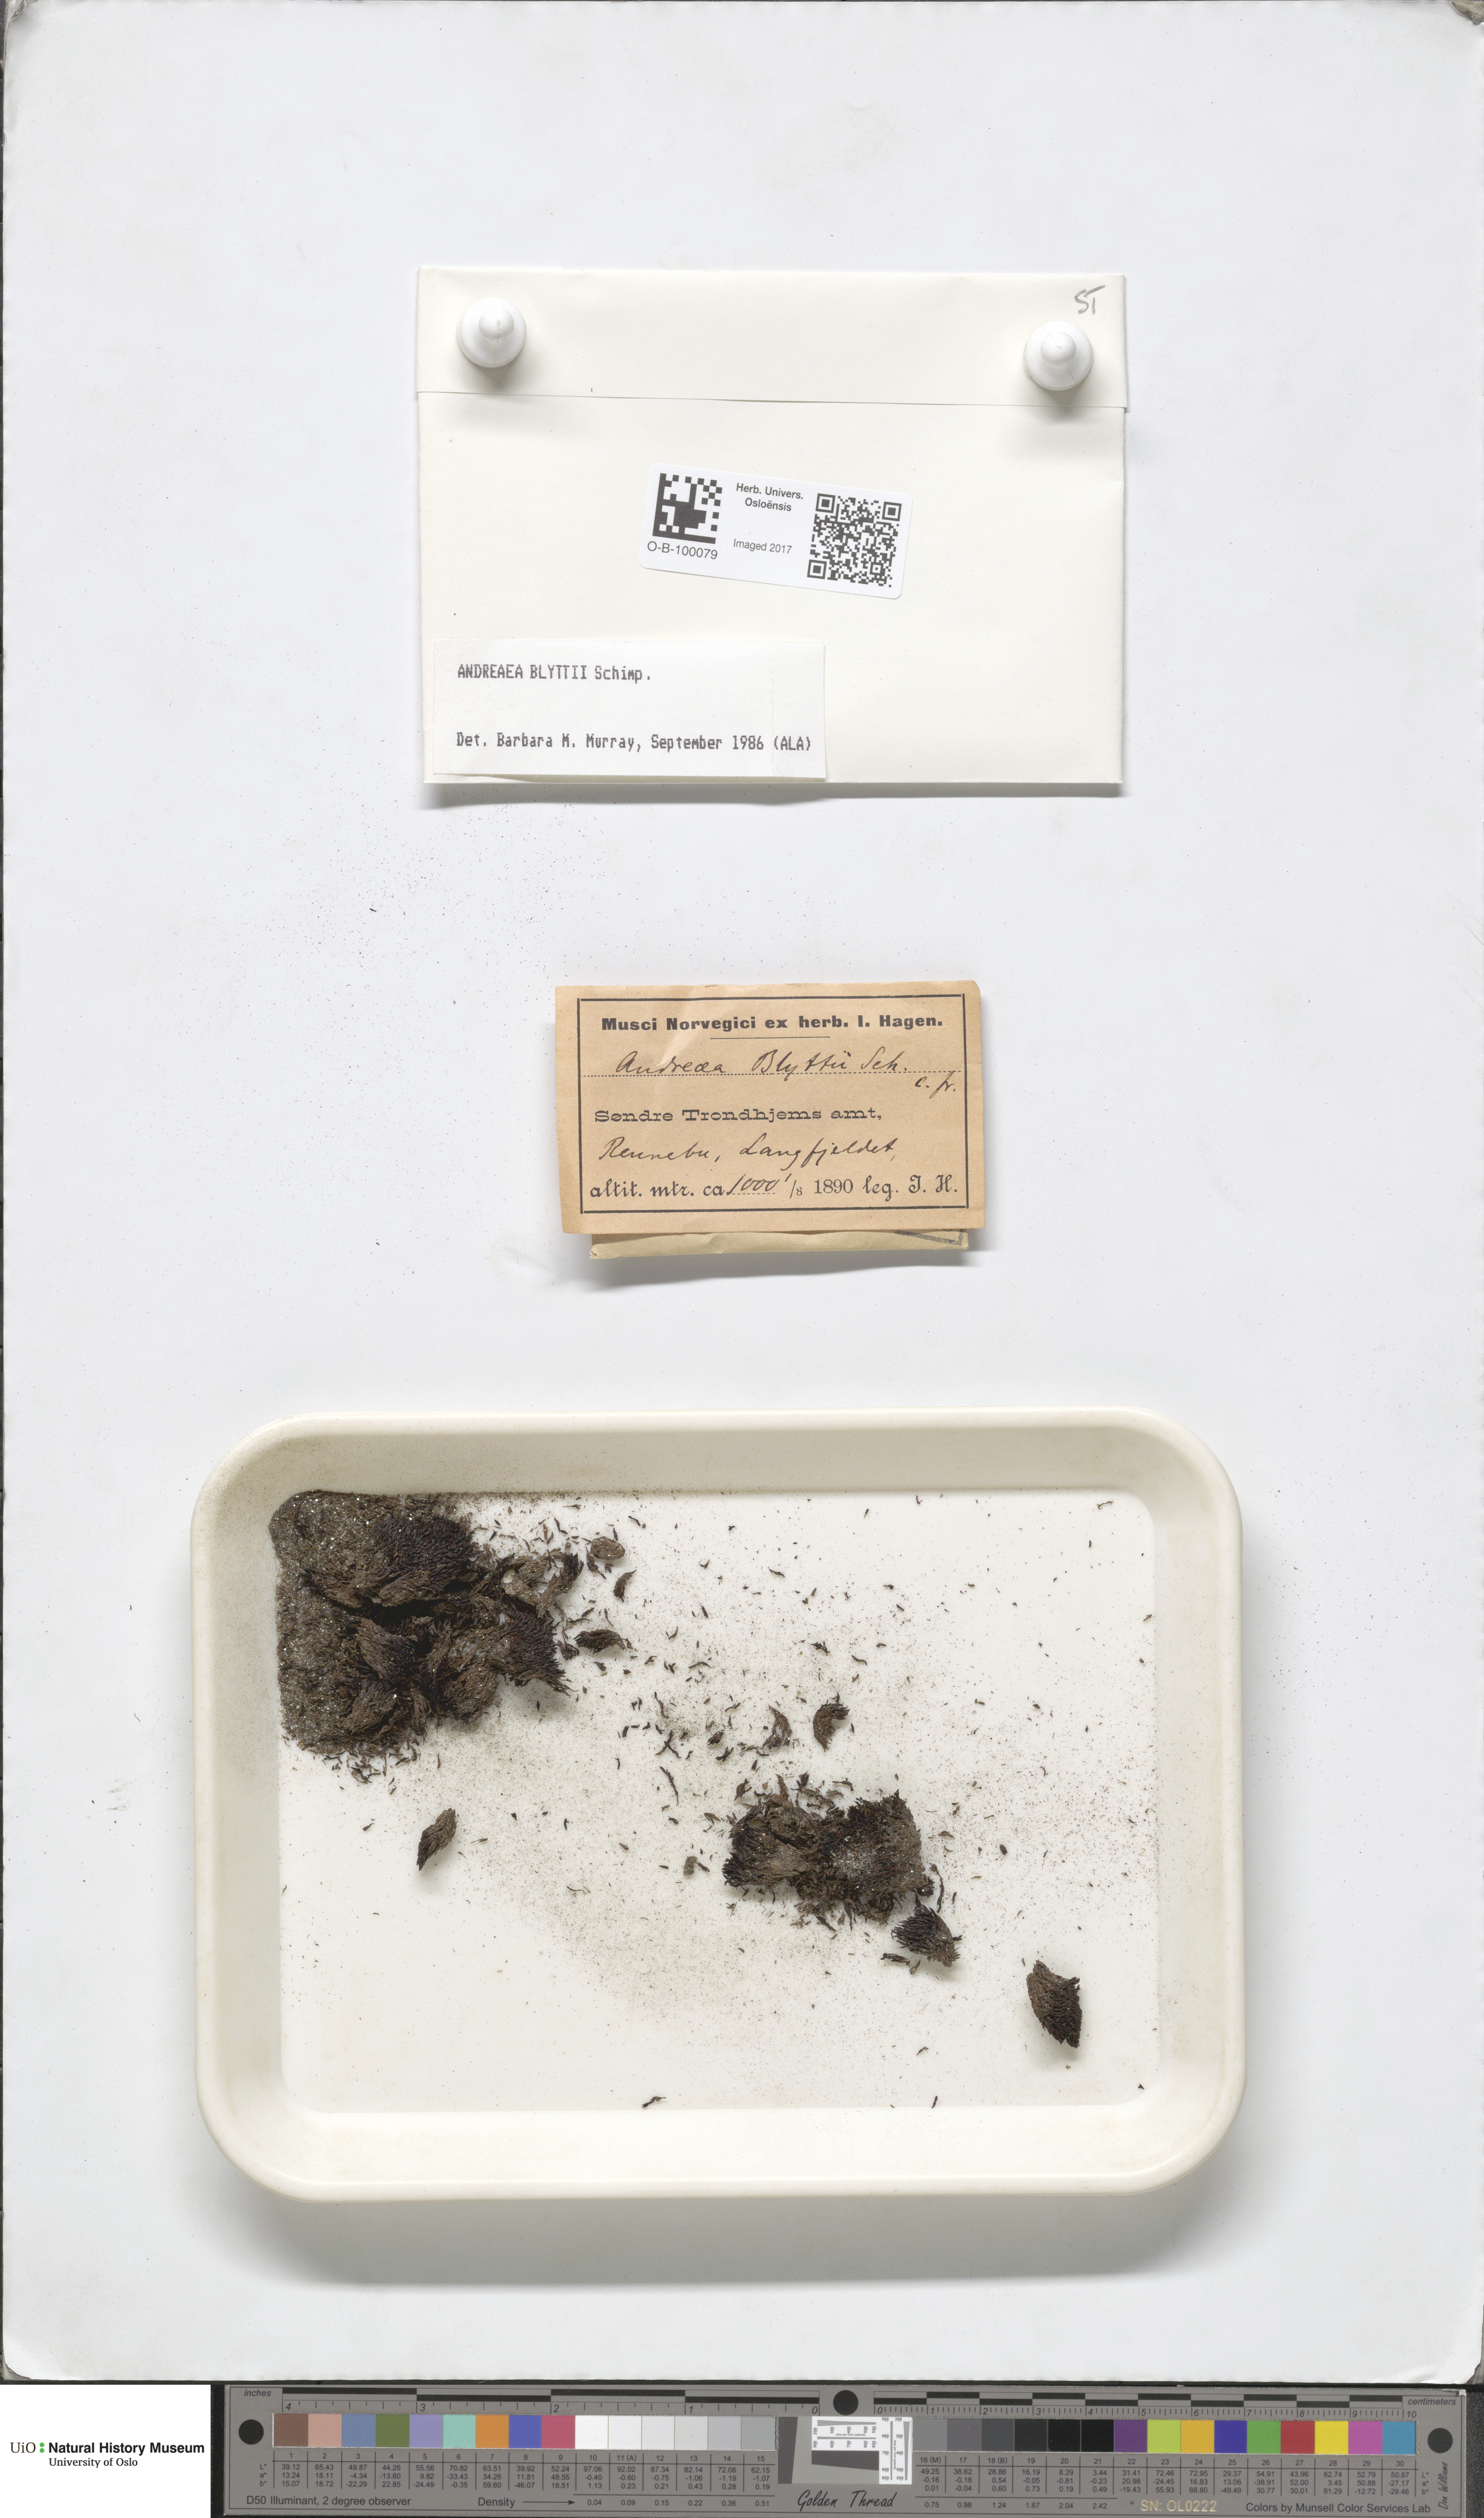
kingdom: Plantae
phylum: Bryophyta
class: Andreaeopsida
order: Andreaeales
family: Andreaeaceae
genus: Andreaea
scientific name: Andreaea blyttii
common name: Blytt's rock moss
